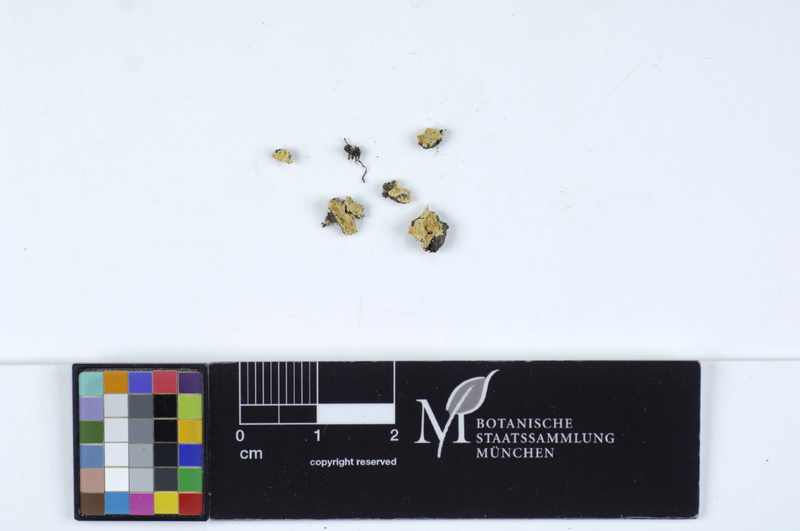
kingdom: Fungi
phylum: Basidiomycota
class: Agaricomycetes
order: Cantharellales
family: Hydnaceae
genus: Membranomyces
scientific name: Membranomyces spurius
